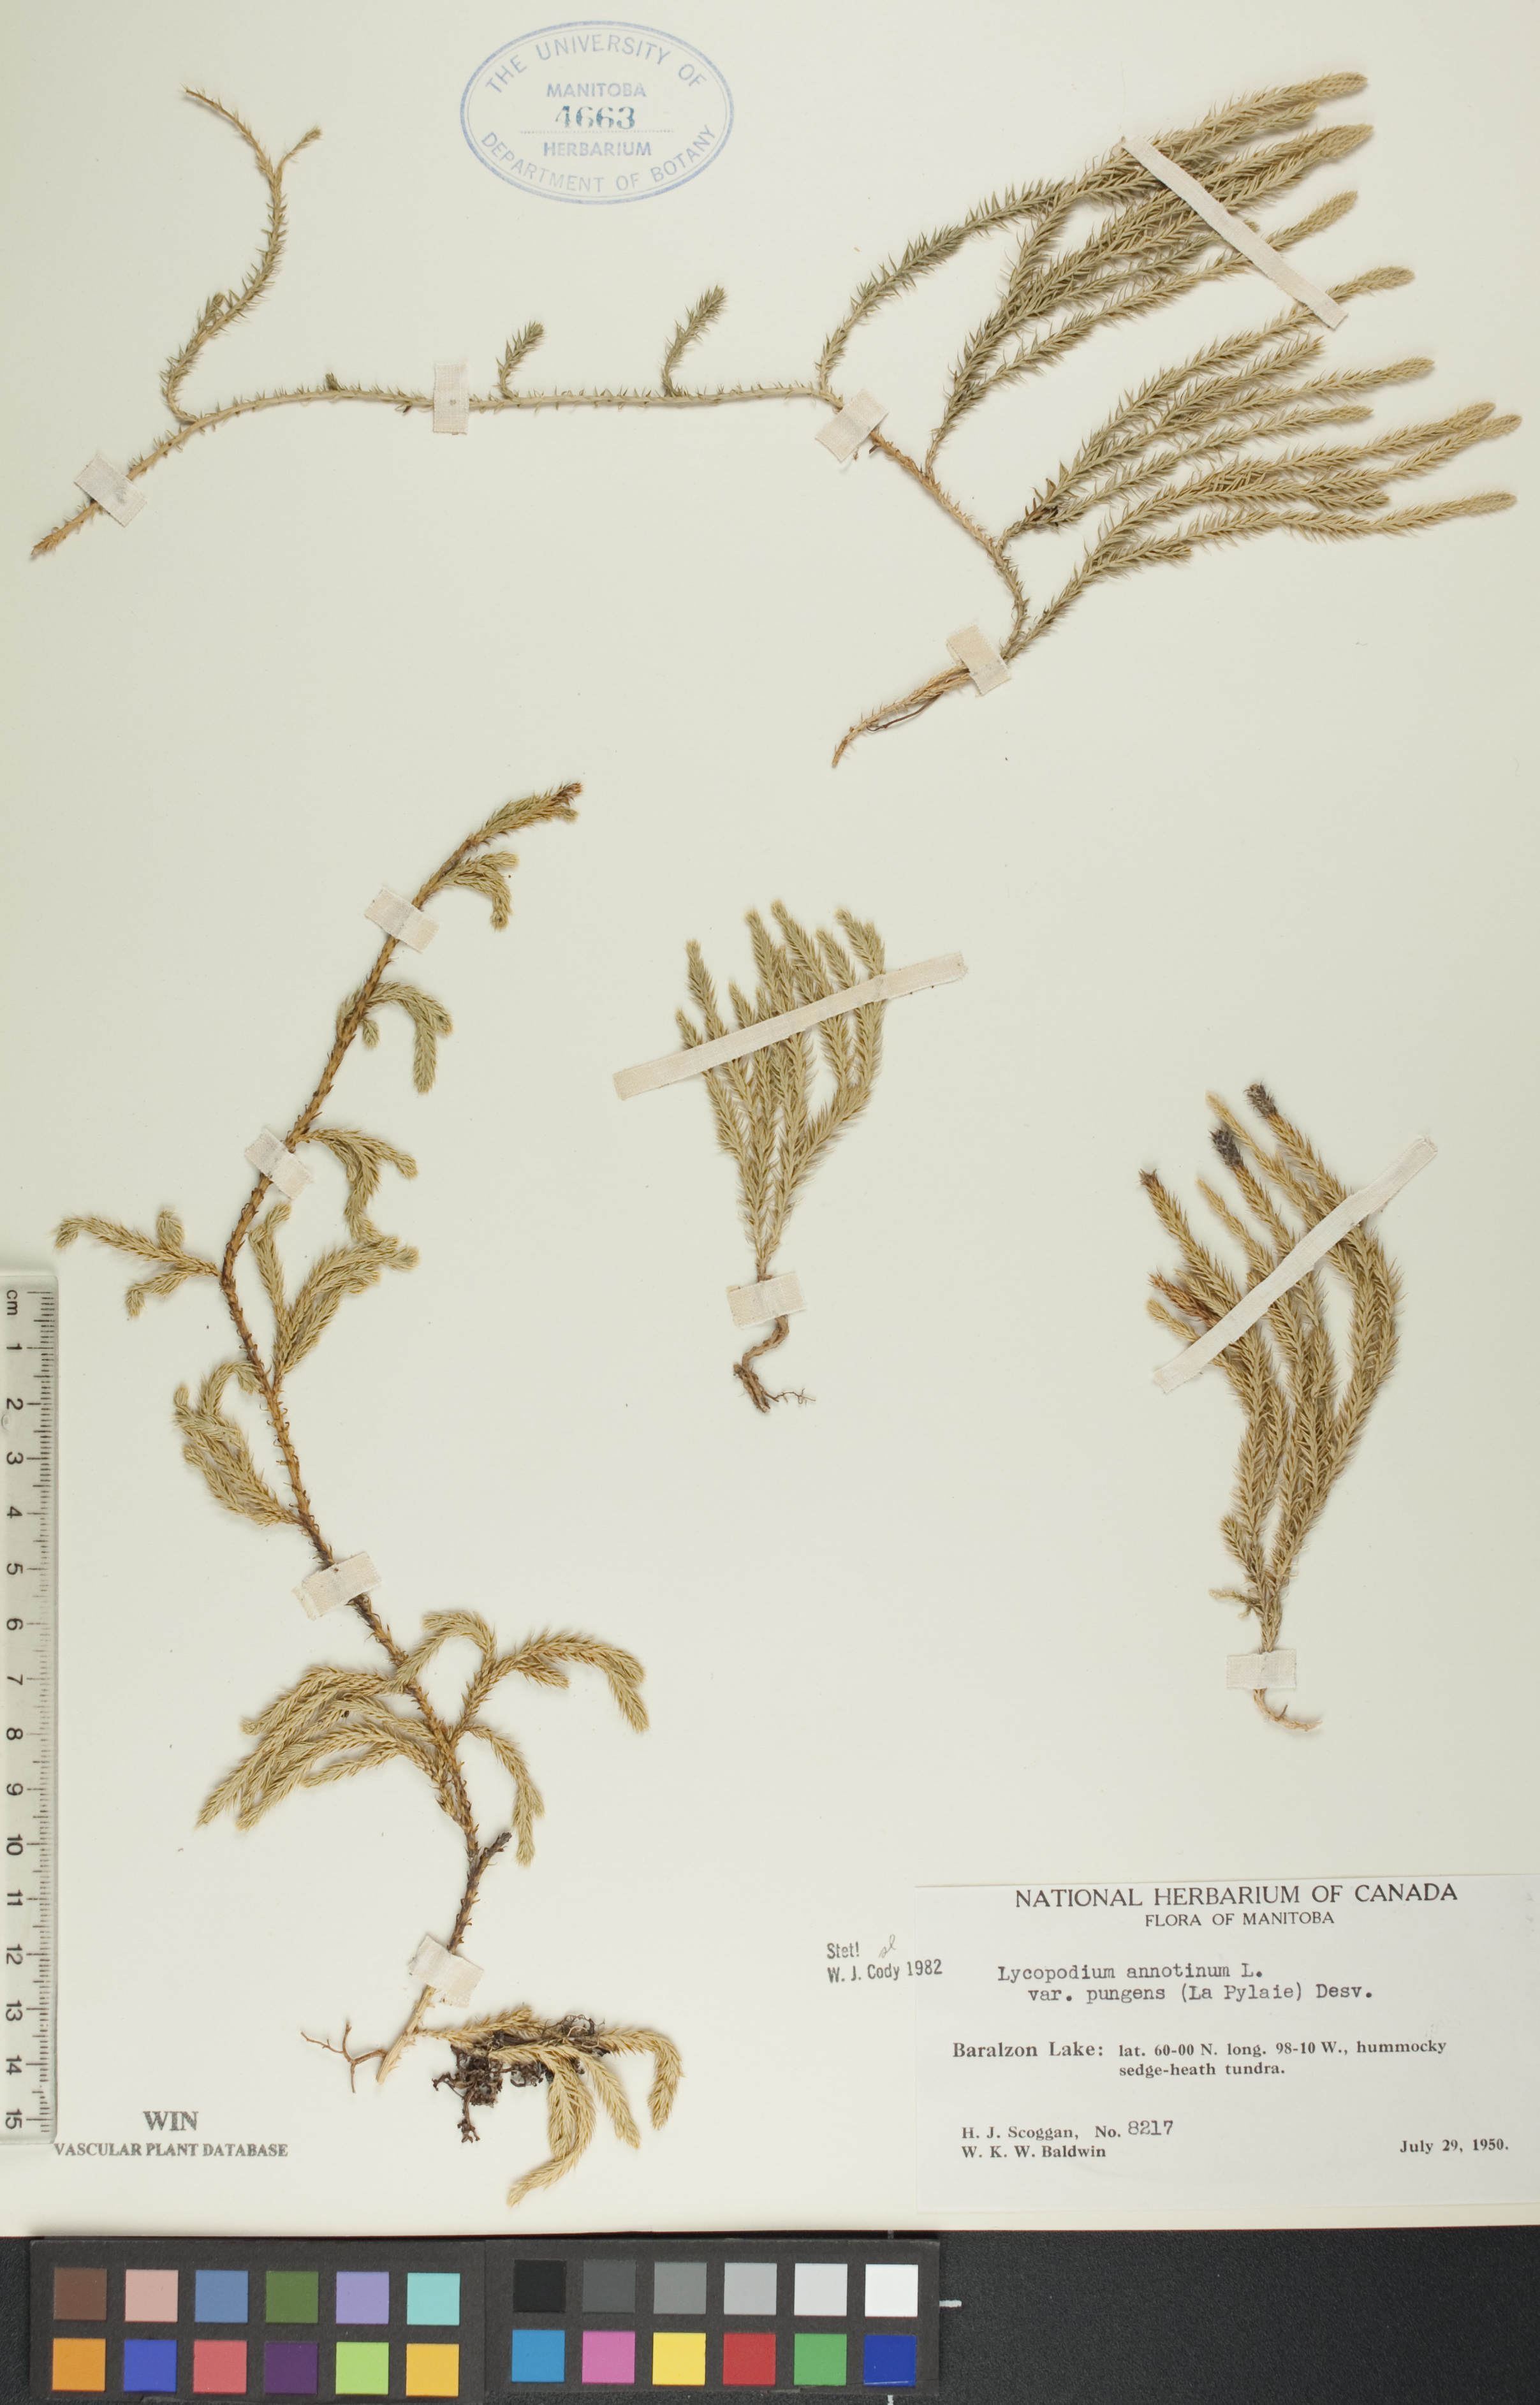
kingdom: Plantae
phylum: Tracheophyta
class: Lycopodiopsida
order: Lycopodiales
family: Lycopodiaceae
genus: Spinulum
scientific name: Spinulum annotinum
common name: Interrupted club-moss
